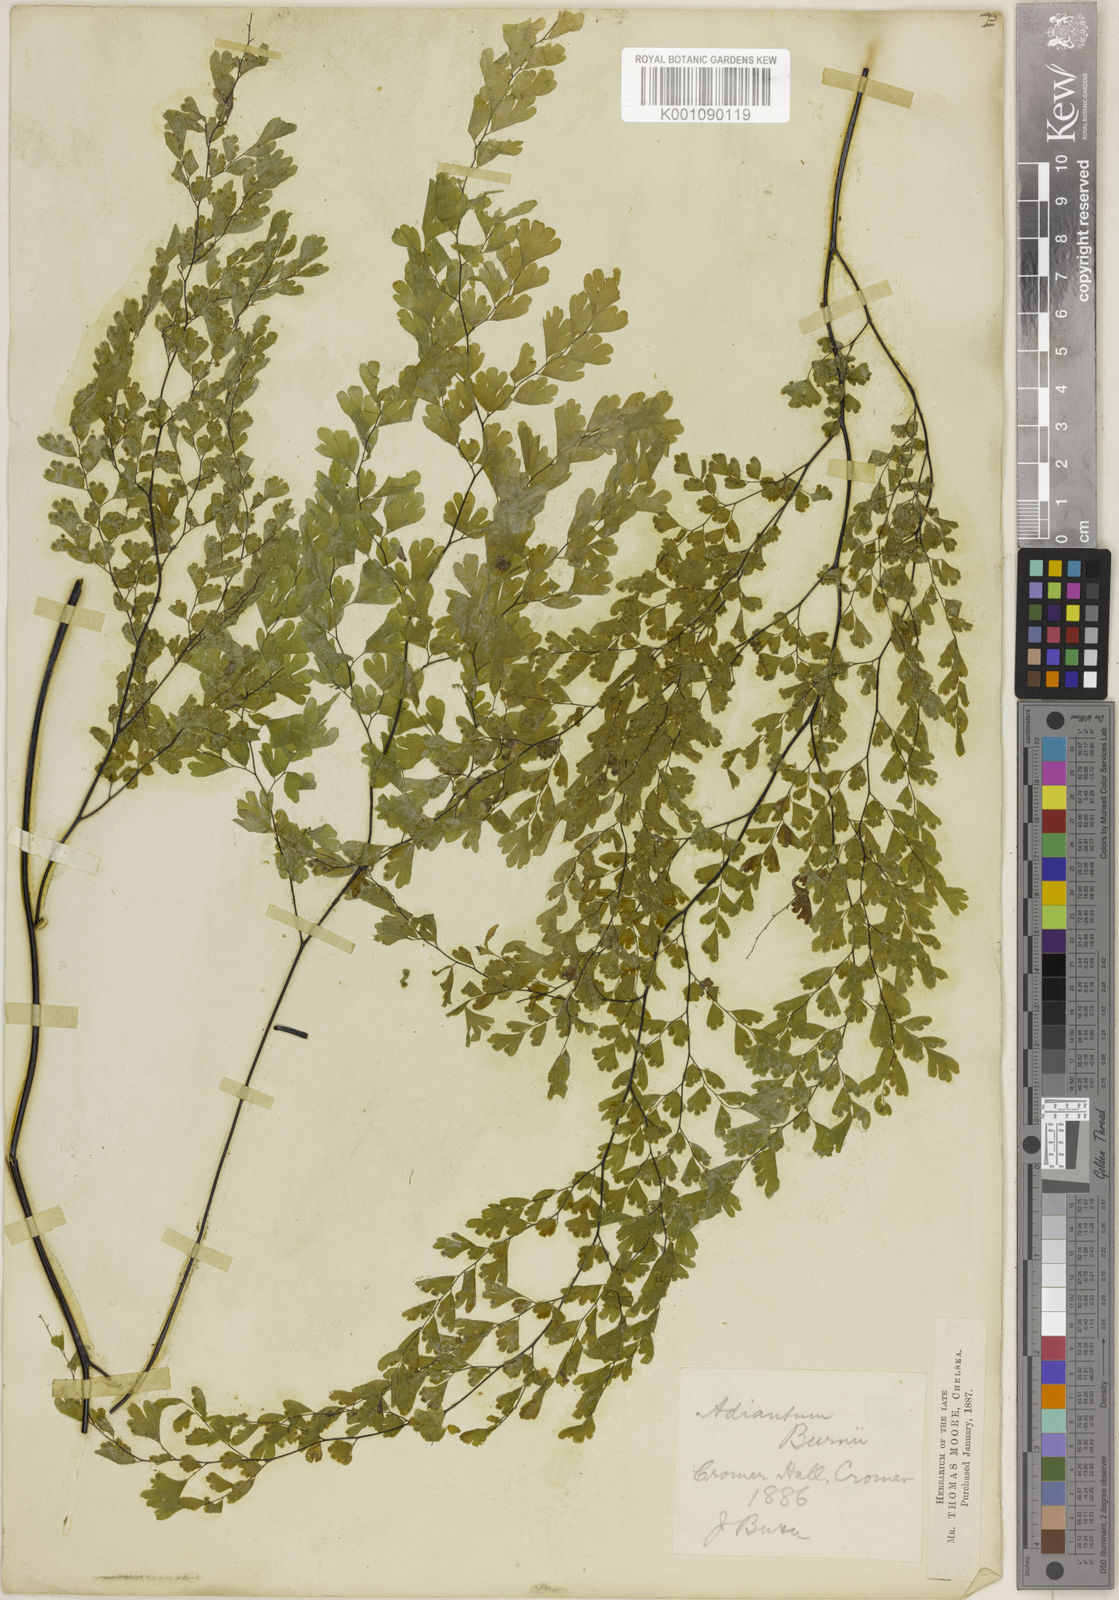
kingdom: Plantae
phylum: Tracheophyta
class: Polypodiopsida
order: Polypodiales
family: Pteridaceae
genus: Adiantum
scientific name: Adiantum raddianum
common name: Delta maidenhair fern
